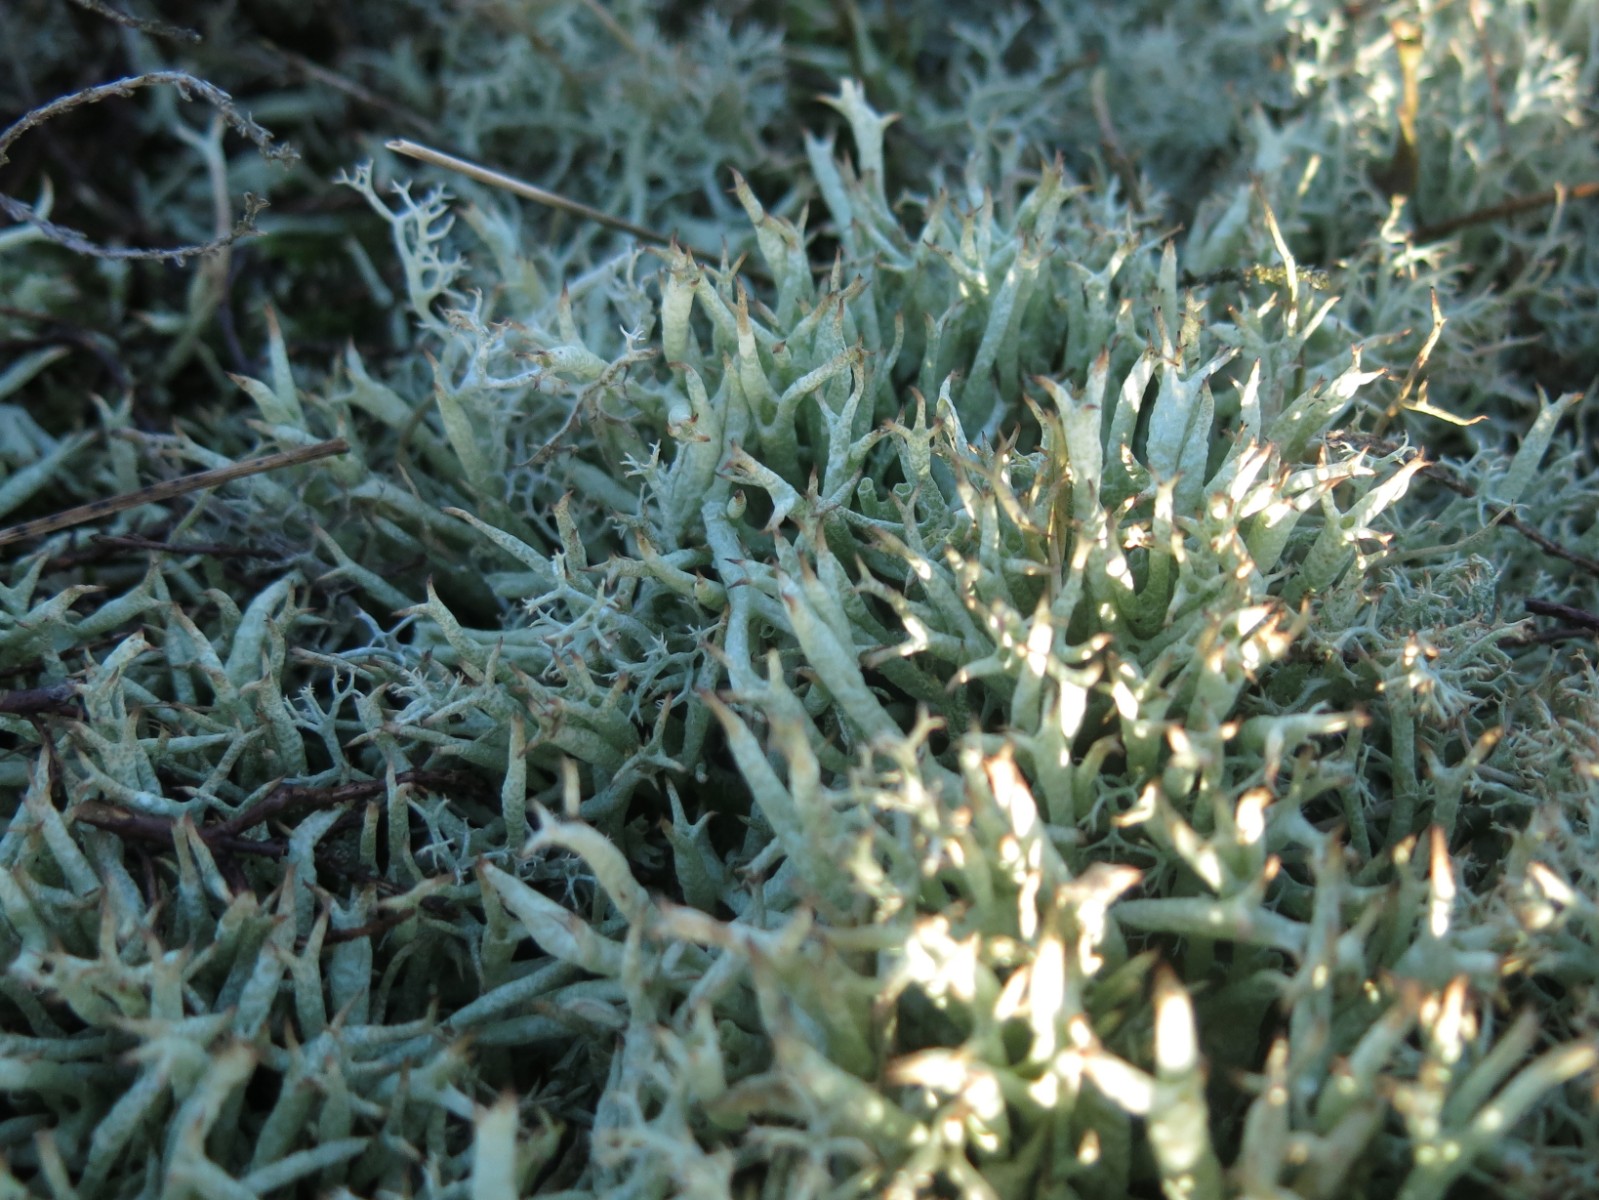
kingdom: Fungi
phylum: Ascomycota
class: Lecanoromycetes
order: Lecanorales
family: Cladoniaceae
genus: Cladonia
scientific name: Cladonia uncialis
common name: pigget bægerlav
